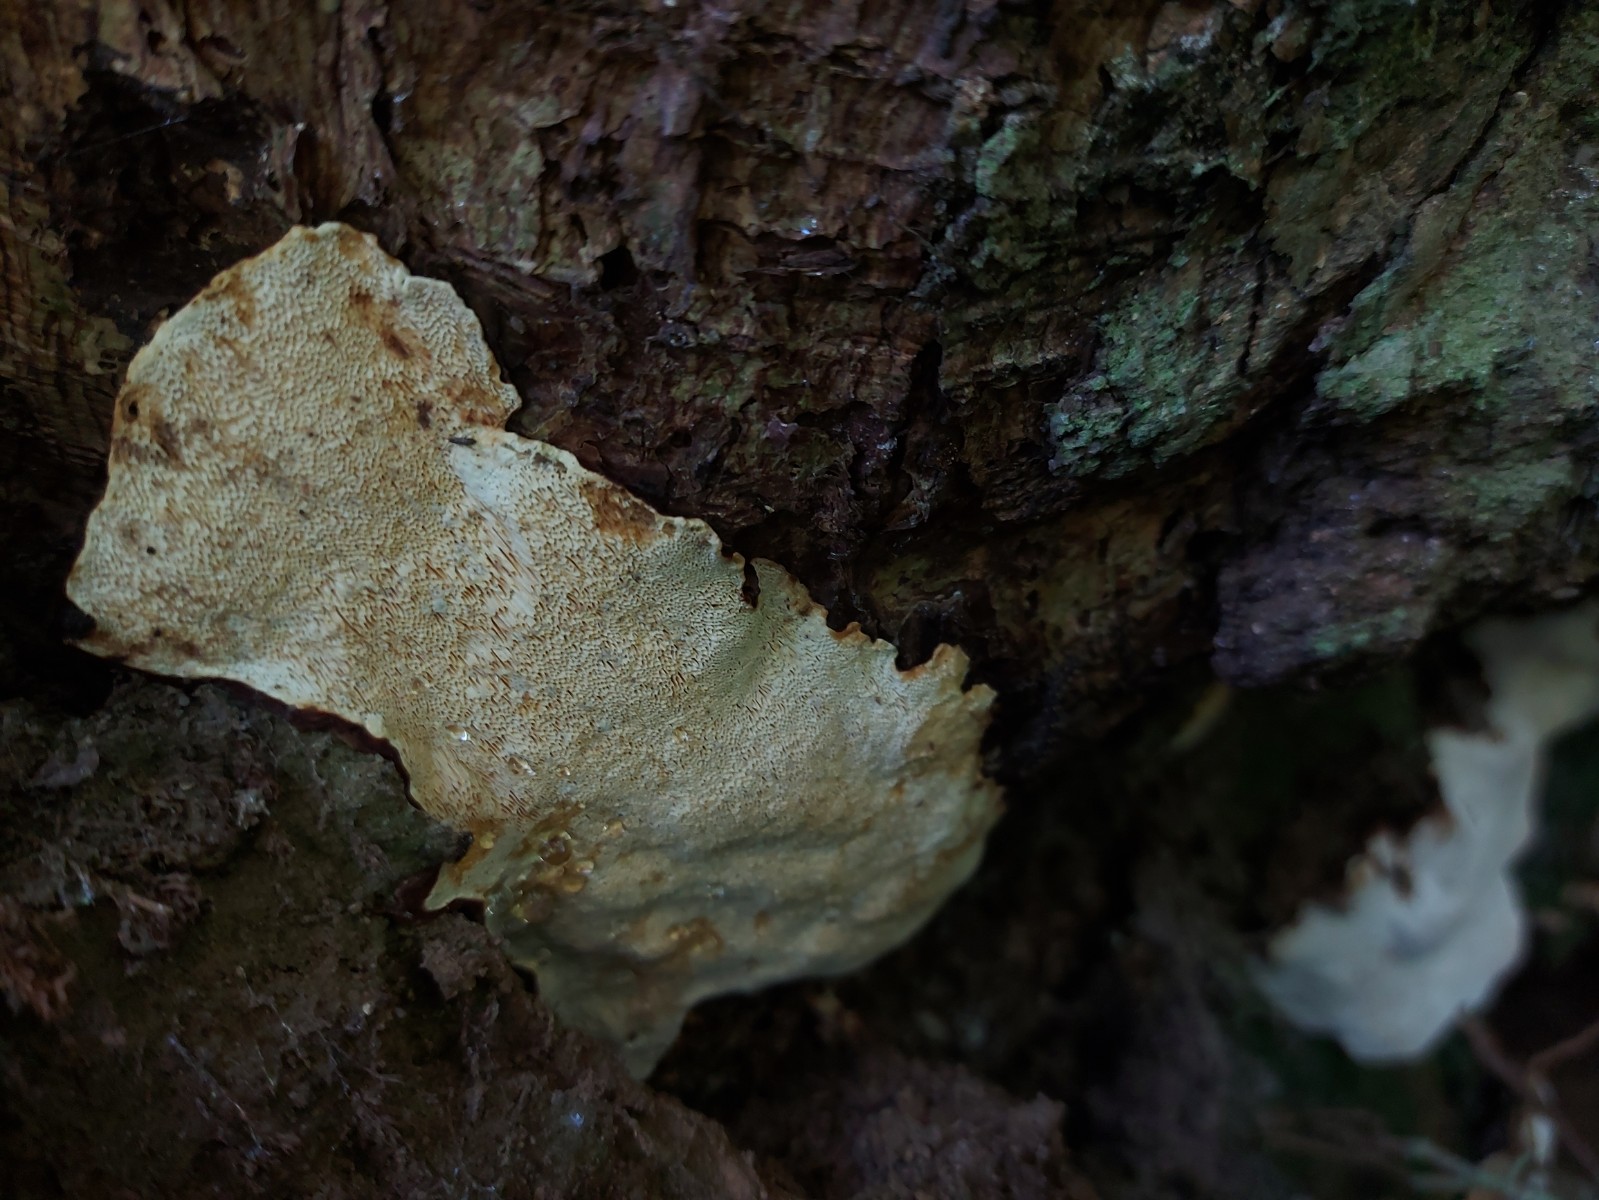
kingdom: Fungi
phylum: Basidiomycota
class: Agaricomycetes
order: Russulales
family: Bondarzewiaceae
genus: Heterobasidion
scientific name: Heterobasidion annosum
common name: almindelig rodfordærver
